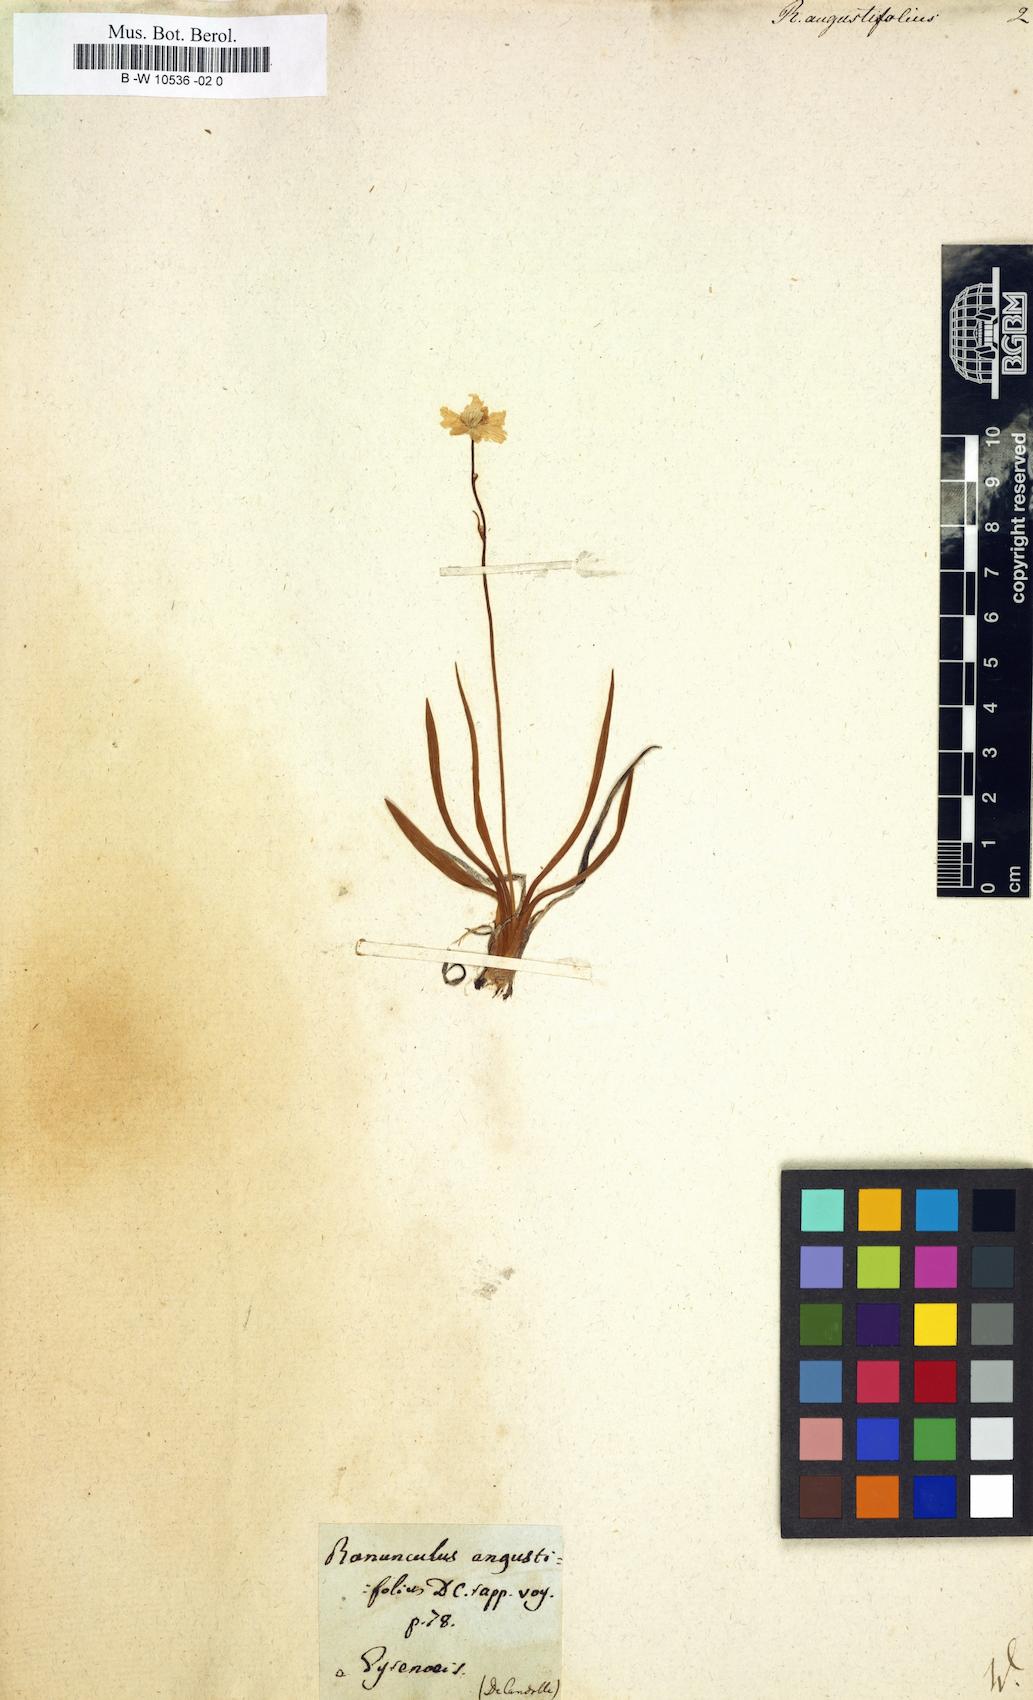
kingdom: Plantae
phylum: Tracheophyta
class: Magnoliopsida
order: Ranunculales
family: Ranunculaceae
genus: Ranunculus
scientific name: Ranunculus angustifolius
